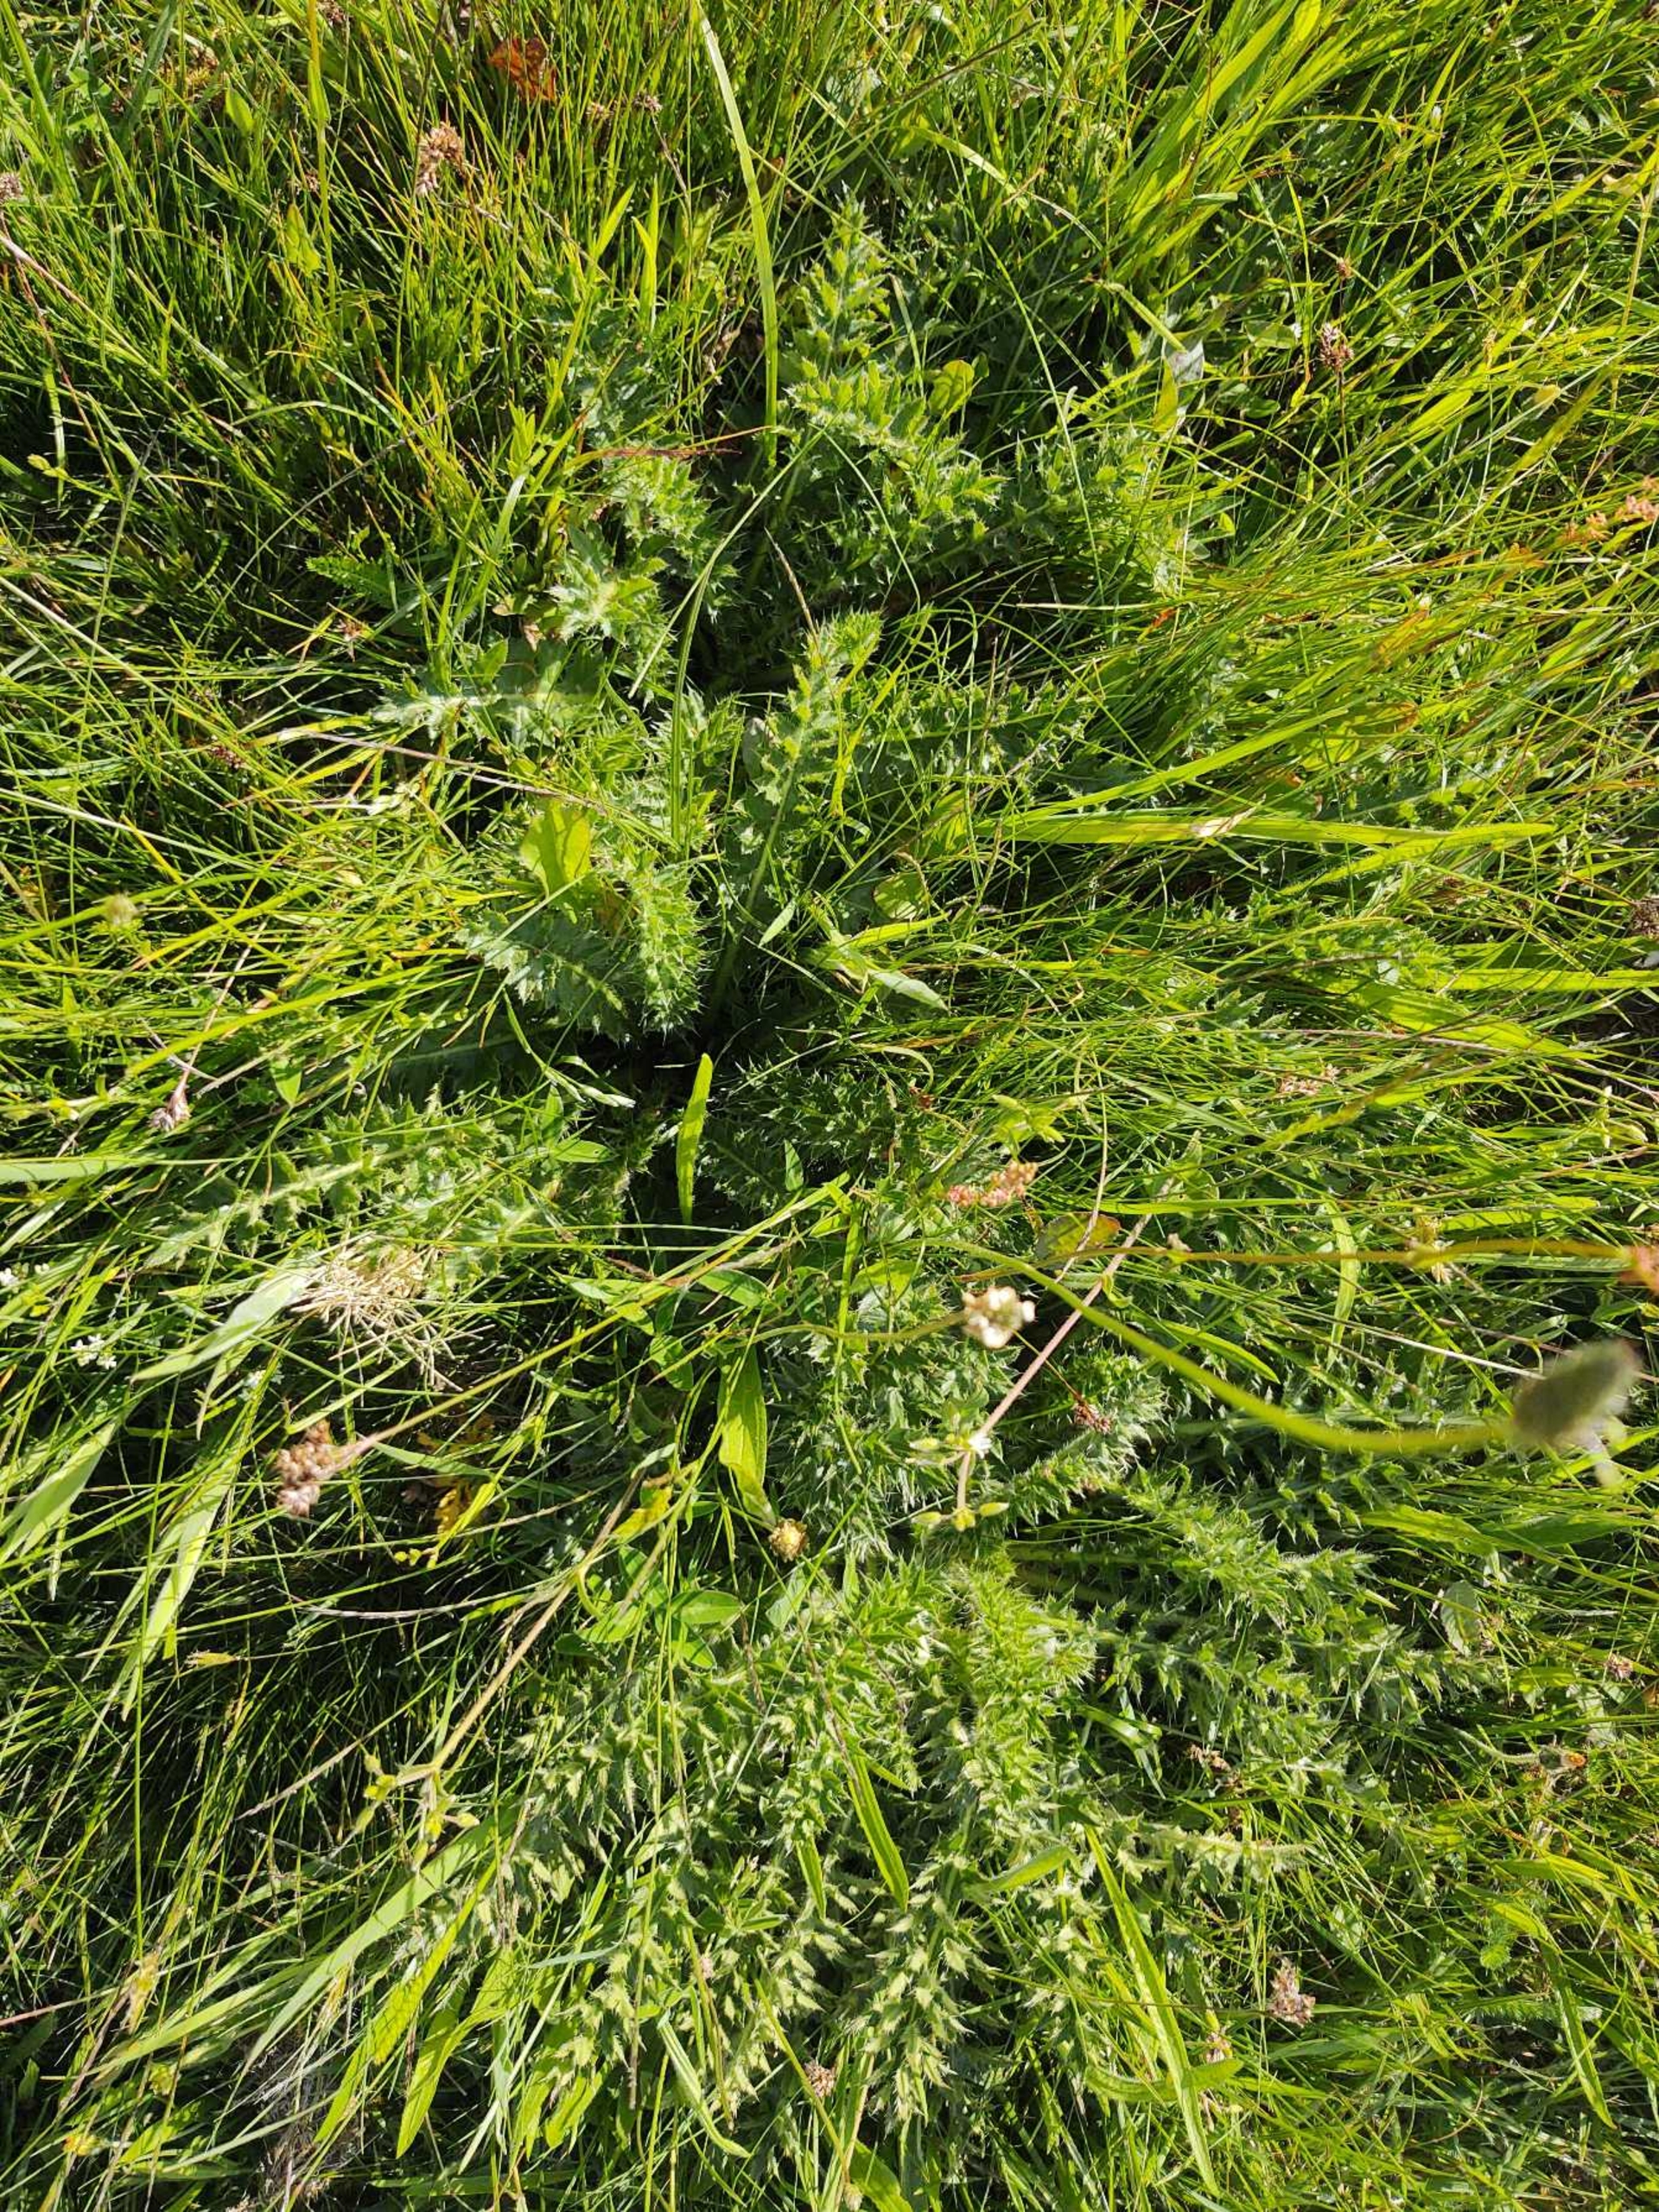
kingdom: Plantae
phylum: Tracheophyta
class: Magnoliopsida
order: Asterales
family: Asteraceae
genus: Cirsium
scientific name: Cirsium acaule
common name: Lav tidsel
